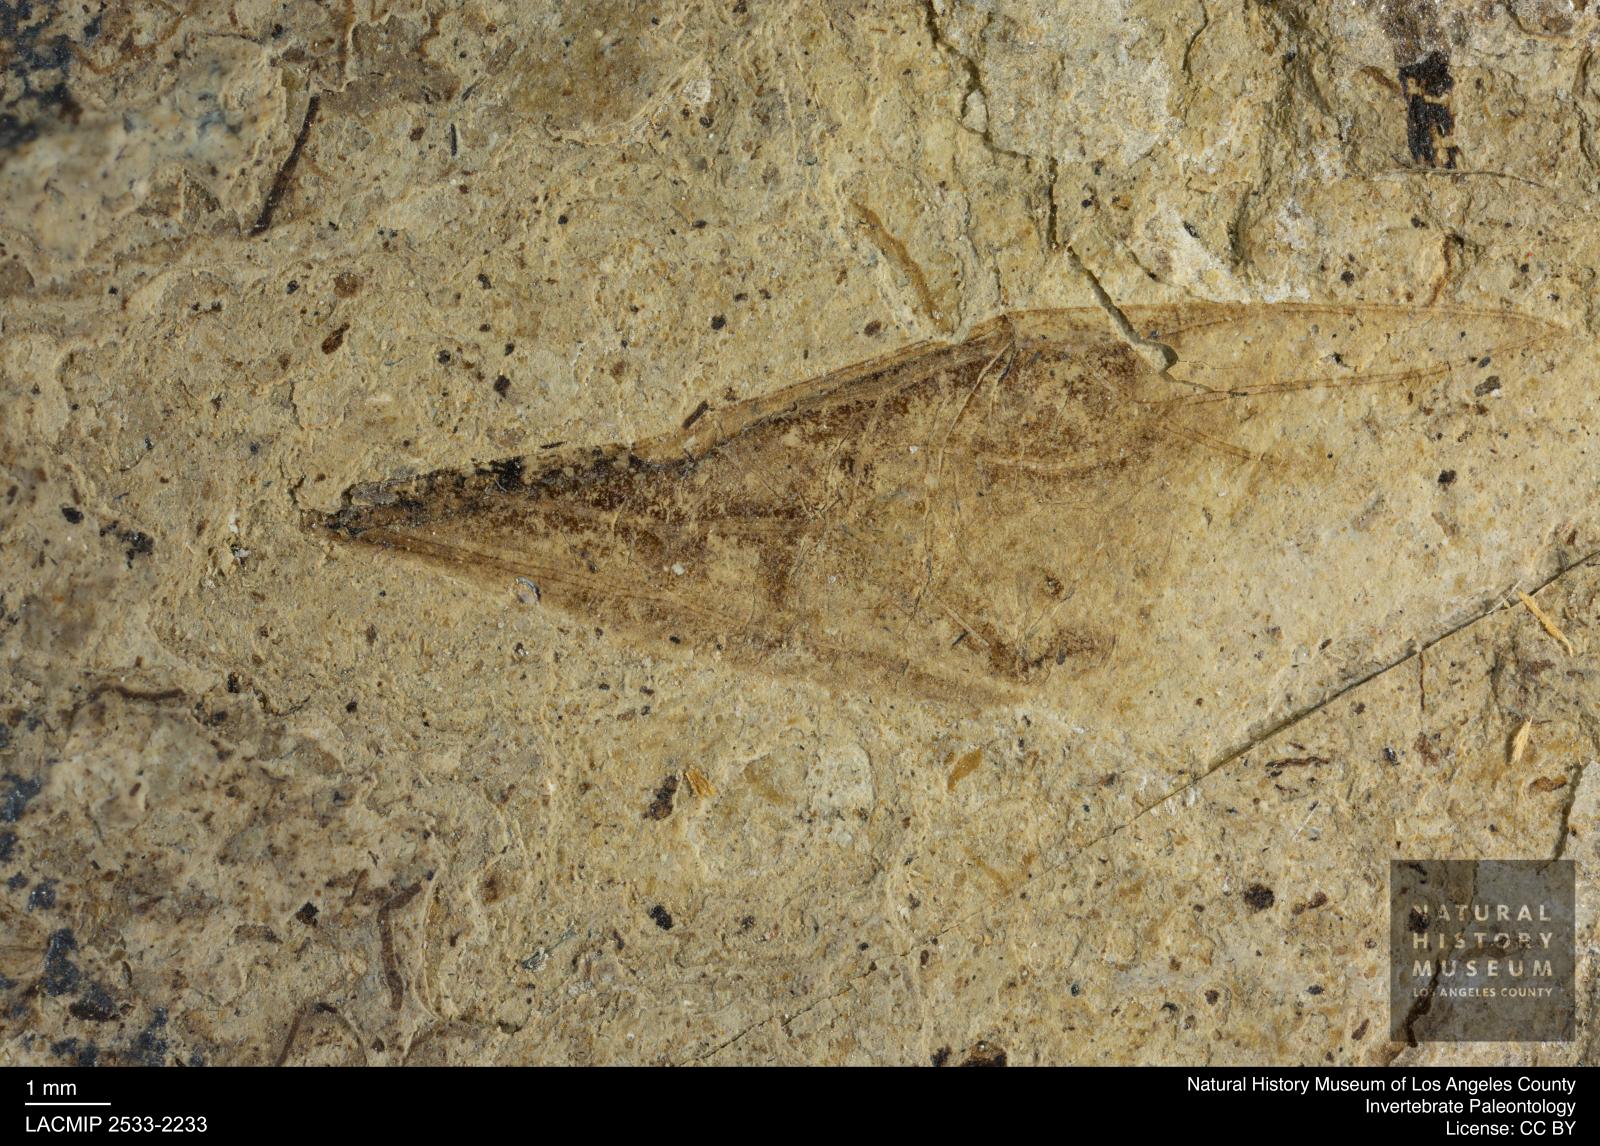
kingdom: Animalia
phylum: Arthropoda
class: Insecta
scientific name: Insecta
